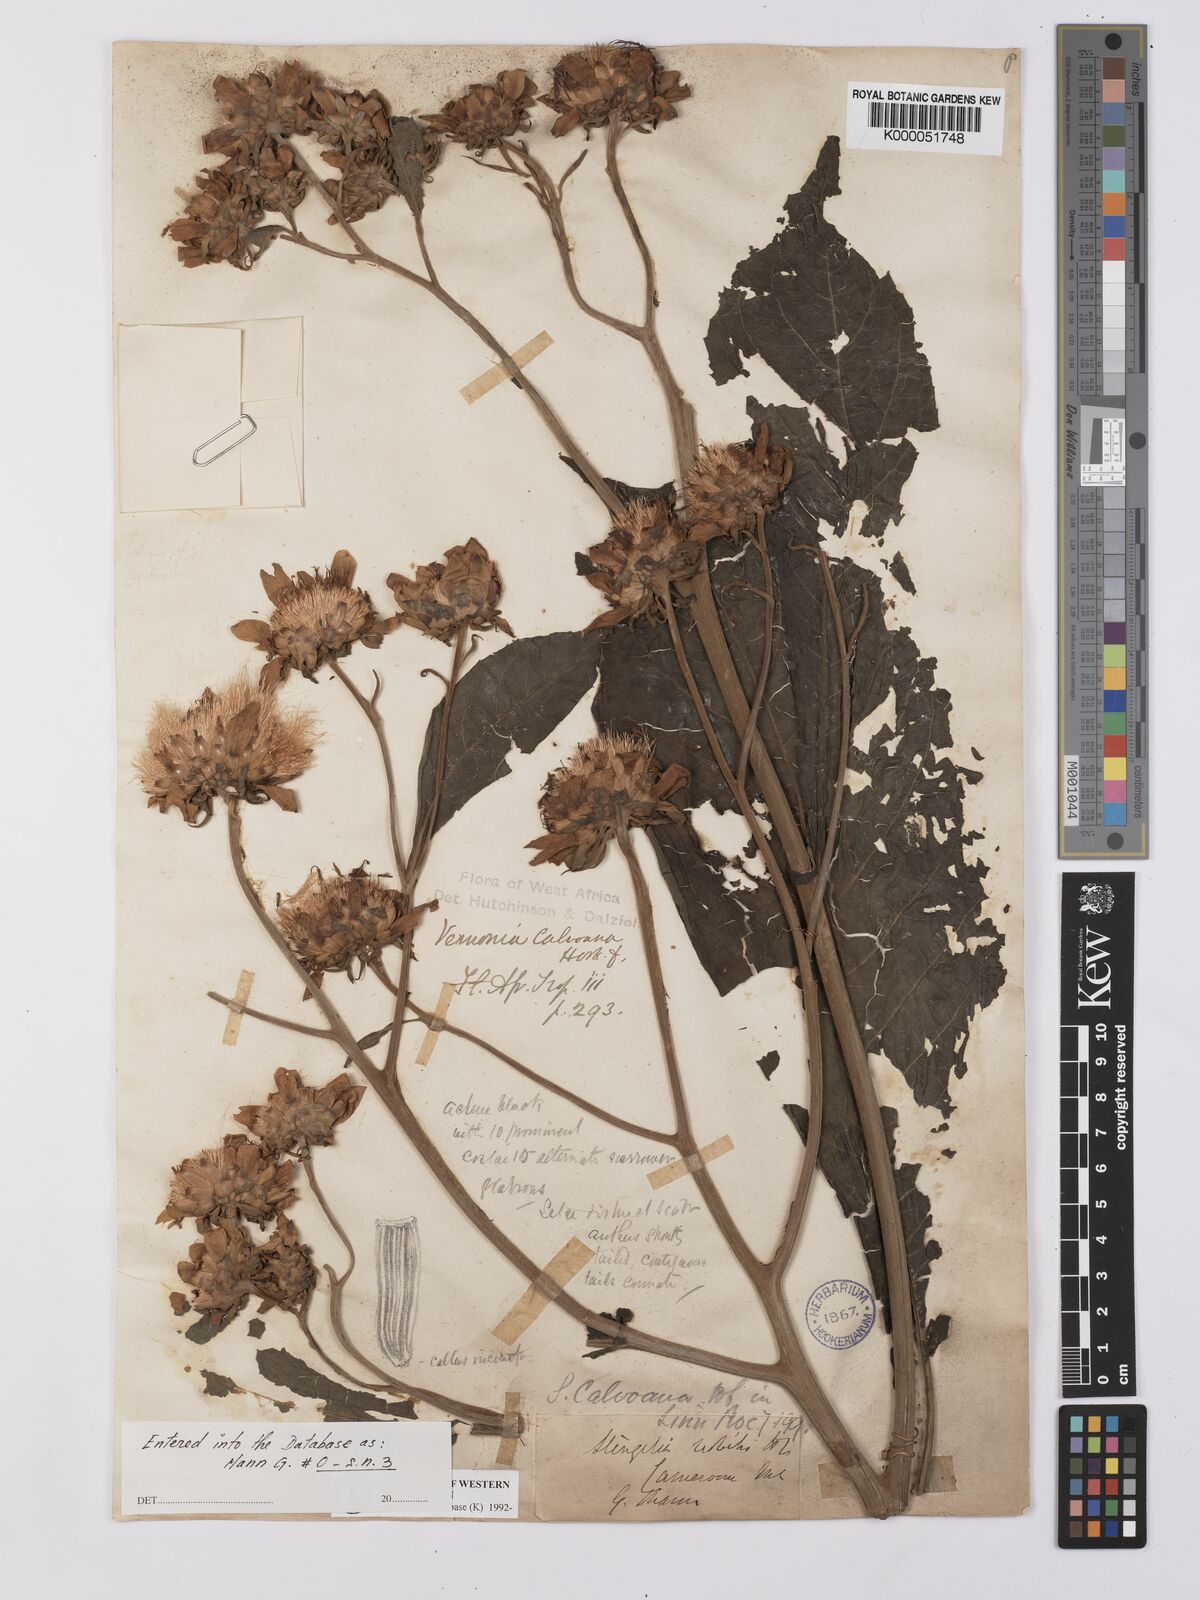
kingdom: Plantae
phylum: Tracheophyta
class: Magnoliopsida
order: Asterales
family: Asteraceae
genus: Baccharoides
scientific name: Baccharoides hymenolepis
